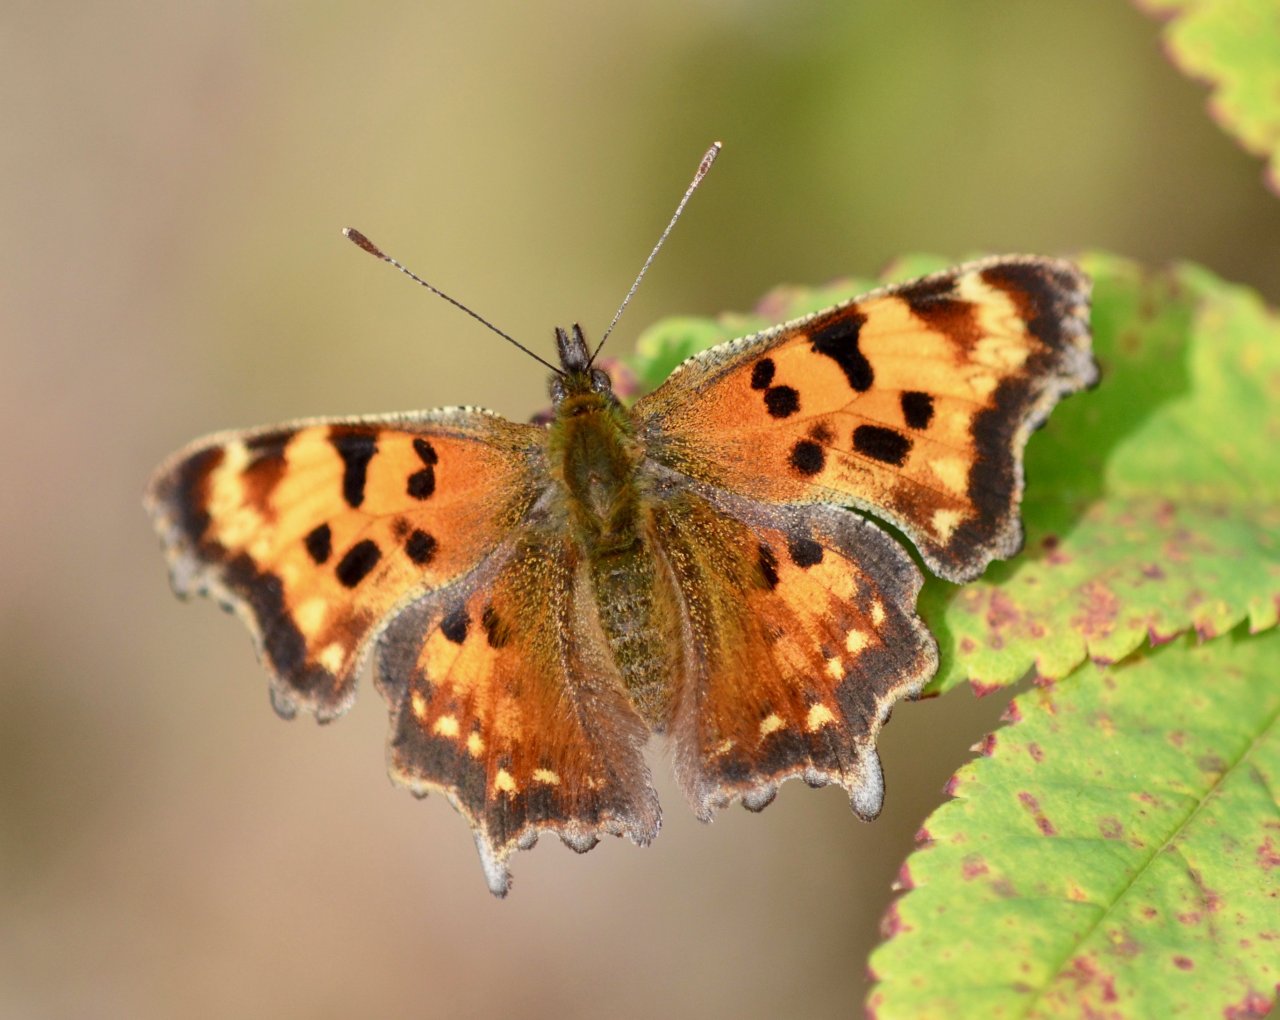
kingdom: Animalia
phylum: Arthropoda
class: Insecta
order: Lepidoptera
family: Nymphalidae
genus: Polygonia
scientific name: Polygonia faunus
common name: Green Comma
